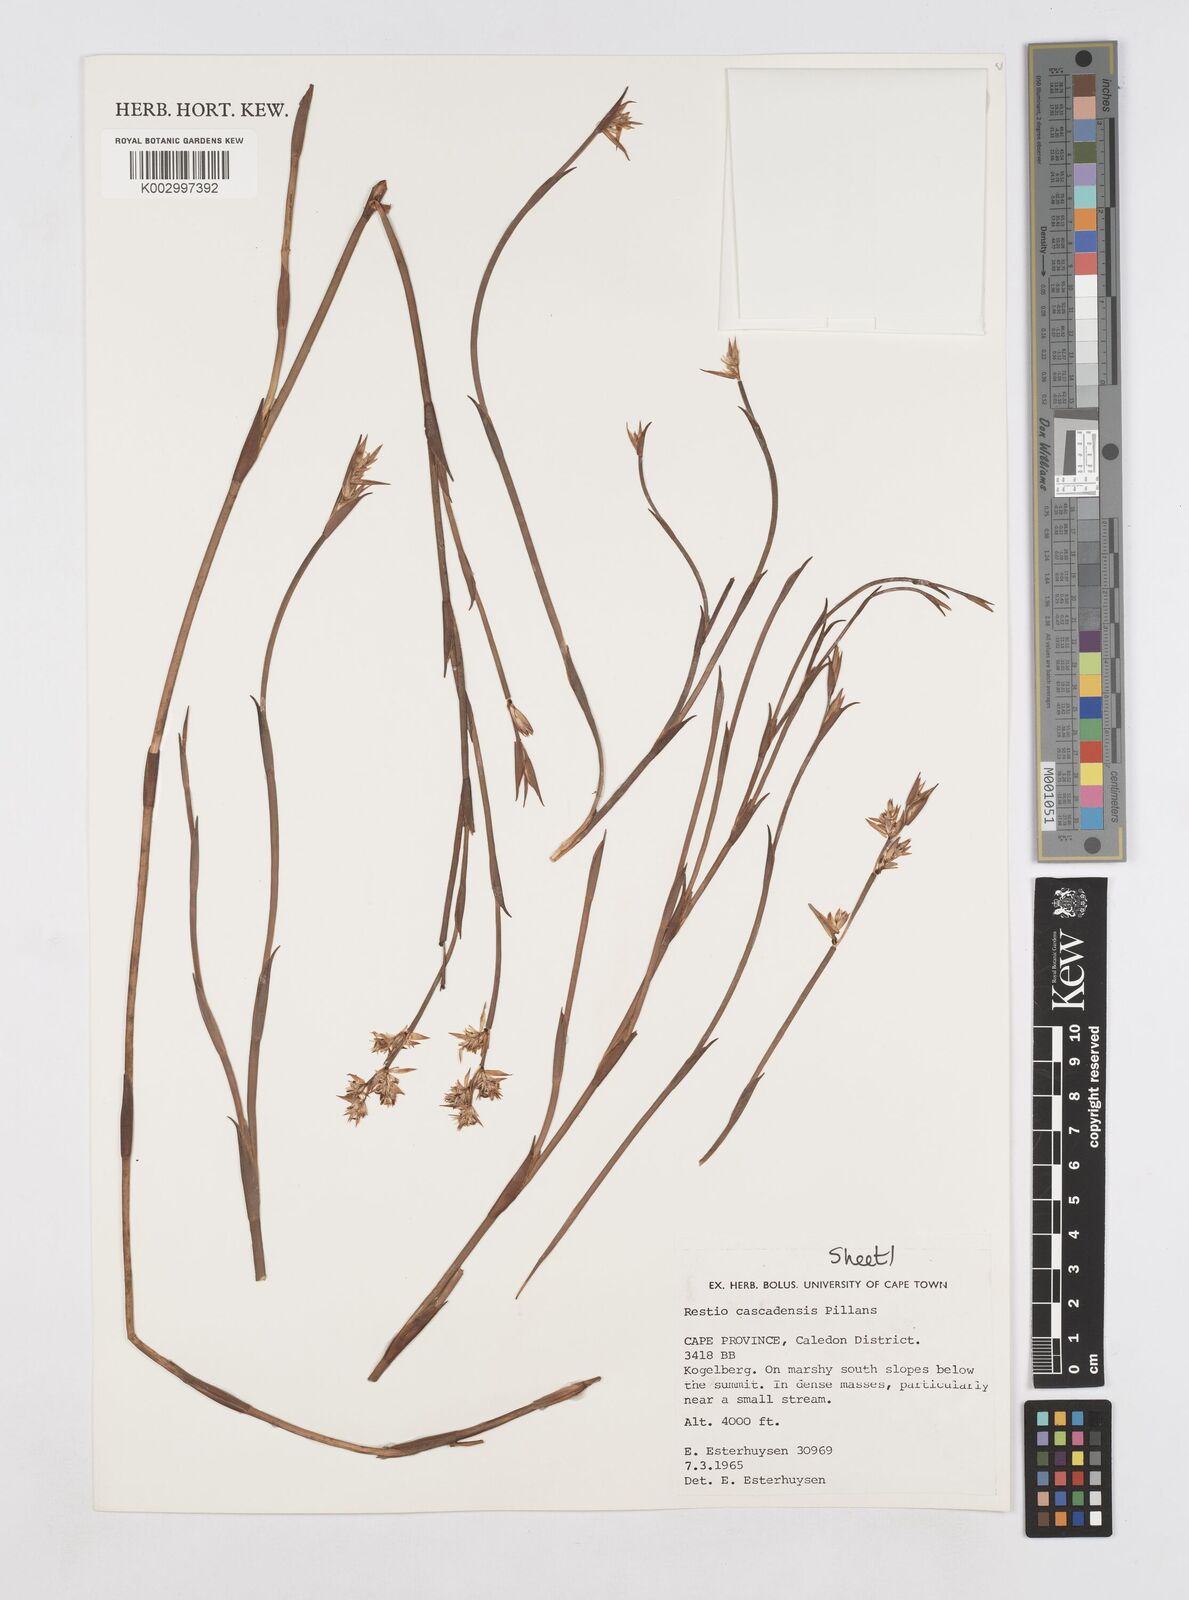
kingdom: Plantae
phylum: Tracheophyta
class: Liliopsida
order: Poales
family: Restionaceae
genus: Platycaulos
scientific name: Platycaulos cascadensis
